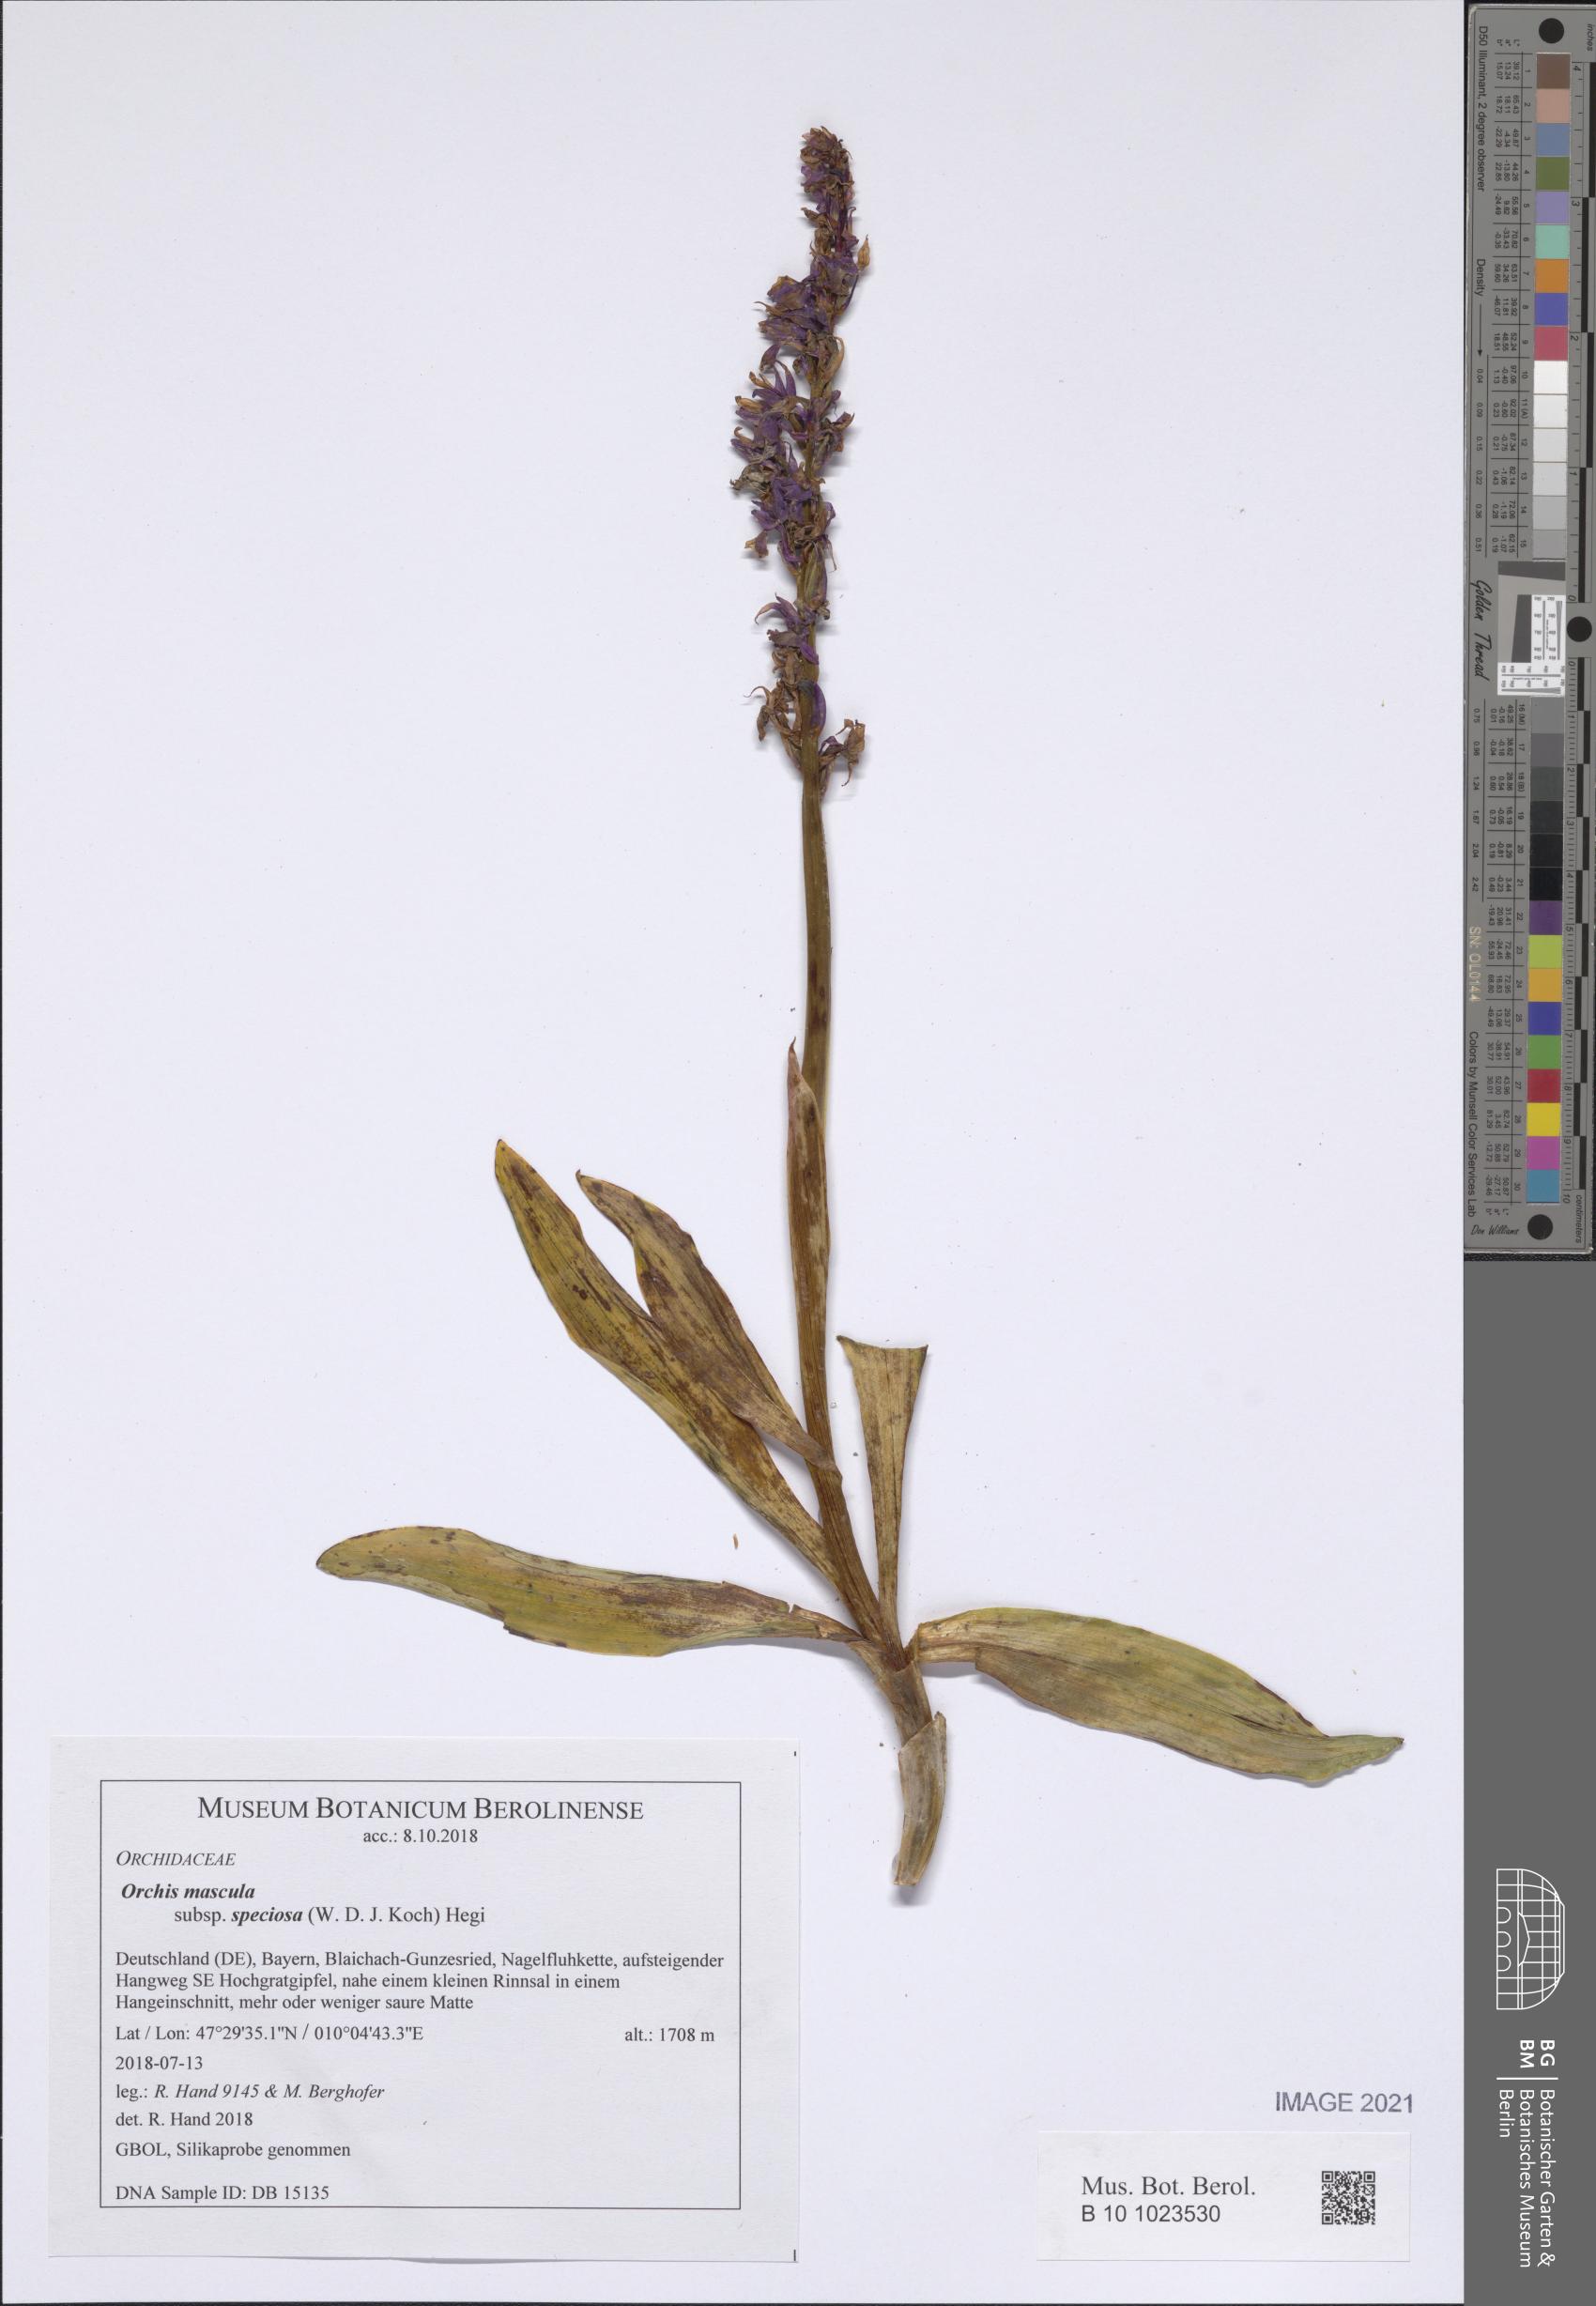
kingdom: Plantae
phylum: Tracheophyta
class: Liliopsida
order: Asparagales
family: Orchidaceae
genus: Orchis
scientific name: Orchis mascula
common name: Early-purple orchid
